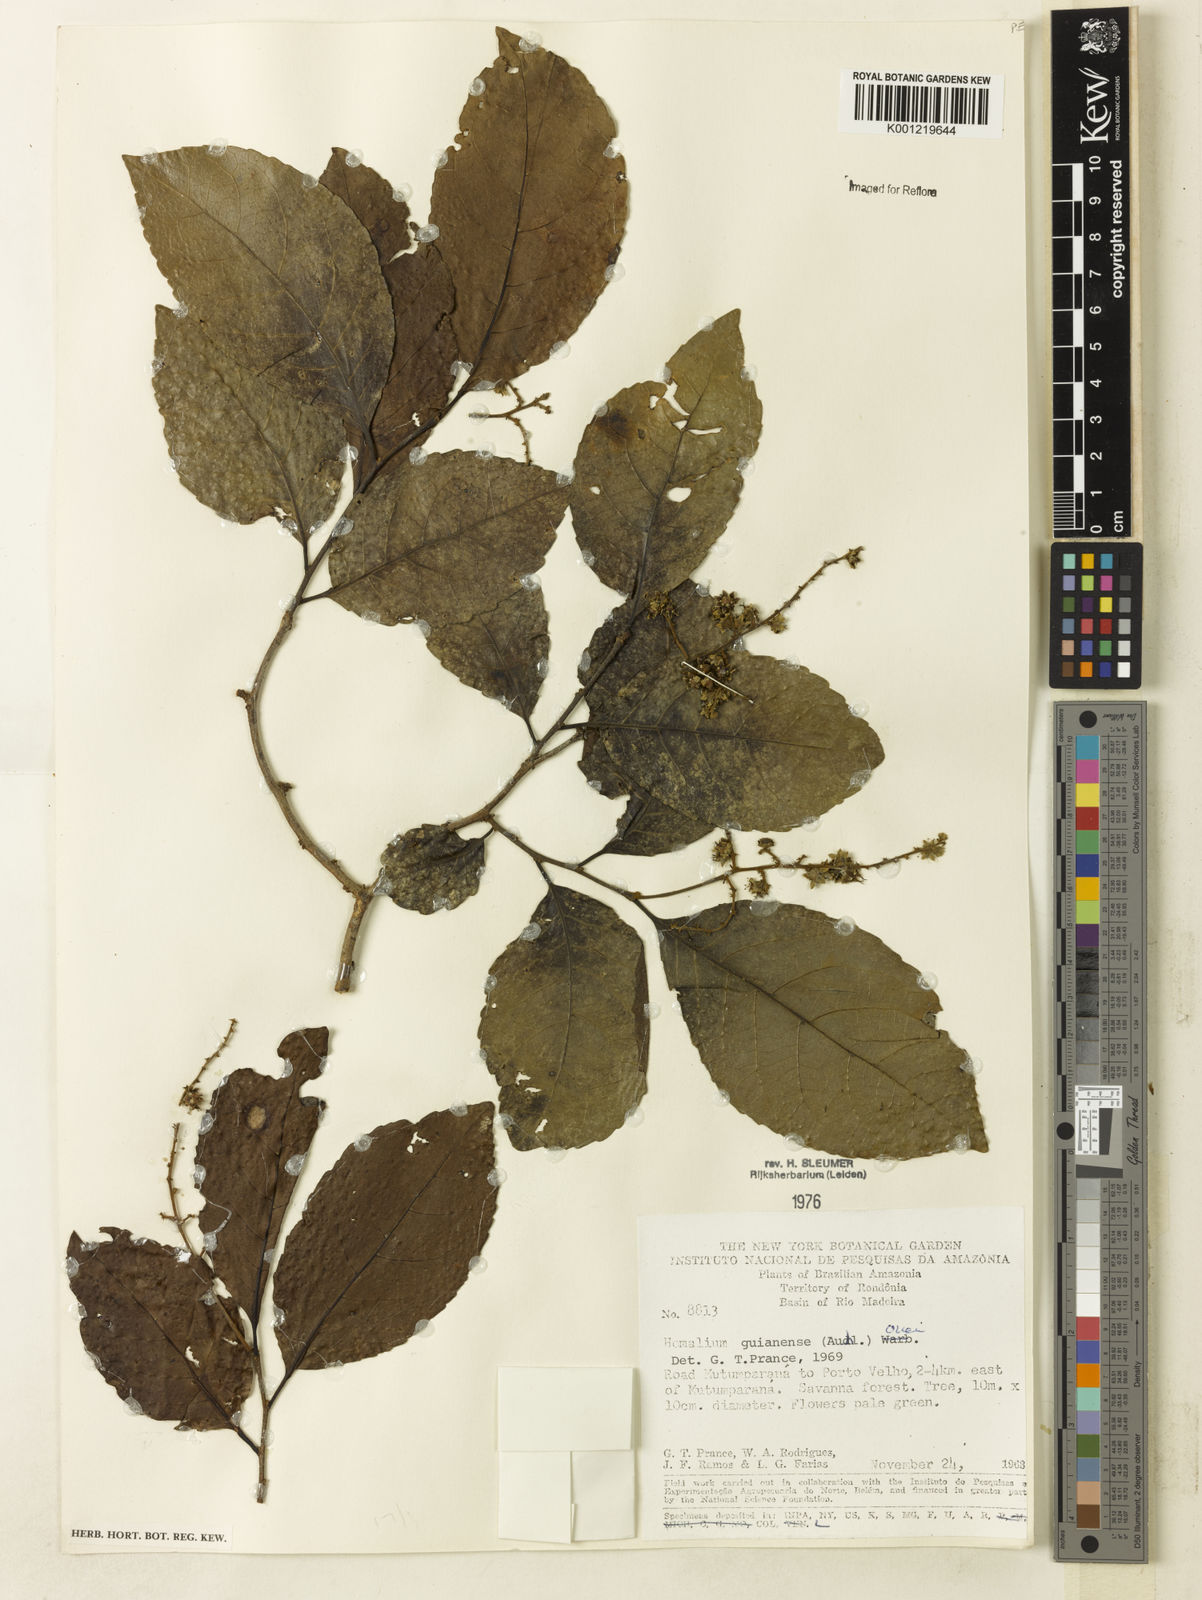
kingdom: Plantae
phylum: Tracheophyta
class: Magnoliopsida
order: Malpighiales
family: Salicaceae
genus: Homalium
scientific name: Homalium guianense
